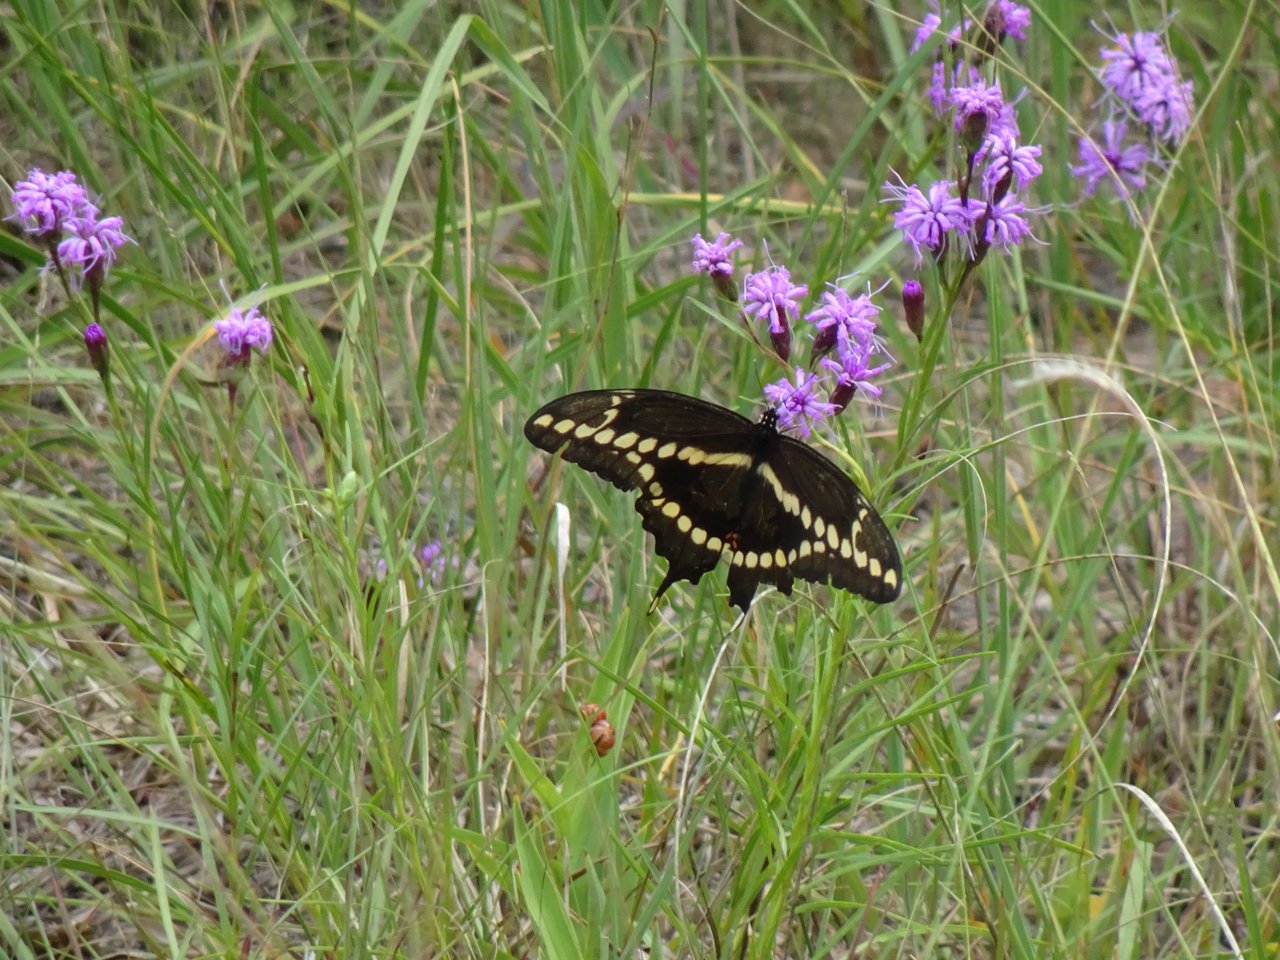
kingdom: Animalia
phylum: Arthropoda
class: Insecta
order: Lepidoptera
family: Papilionidae
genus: Papilio
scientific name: Papilio cresphontes
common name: Eastern Giant Swallowtail
